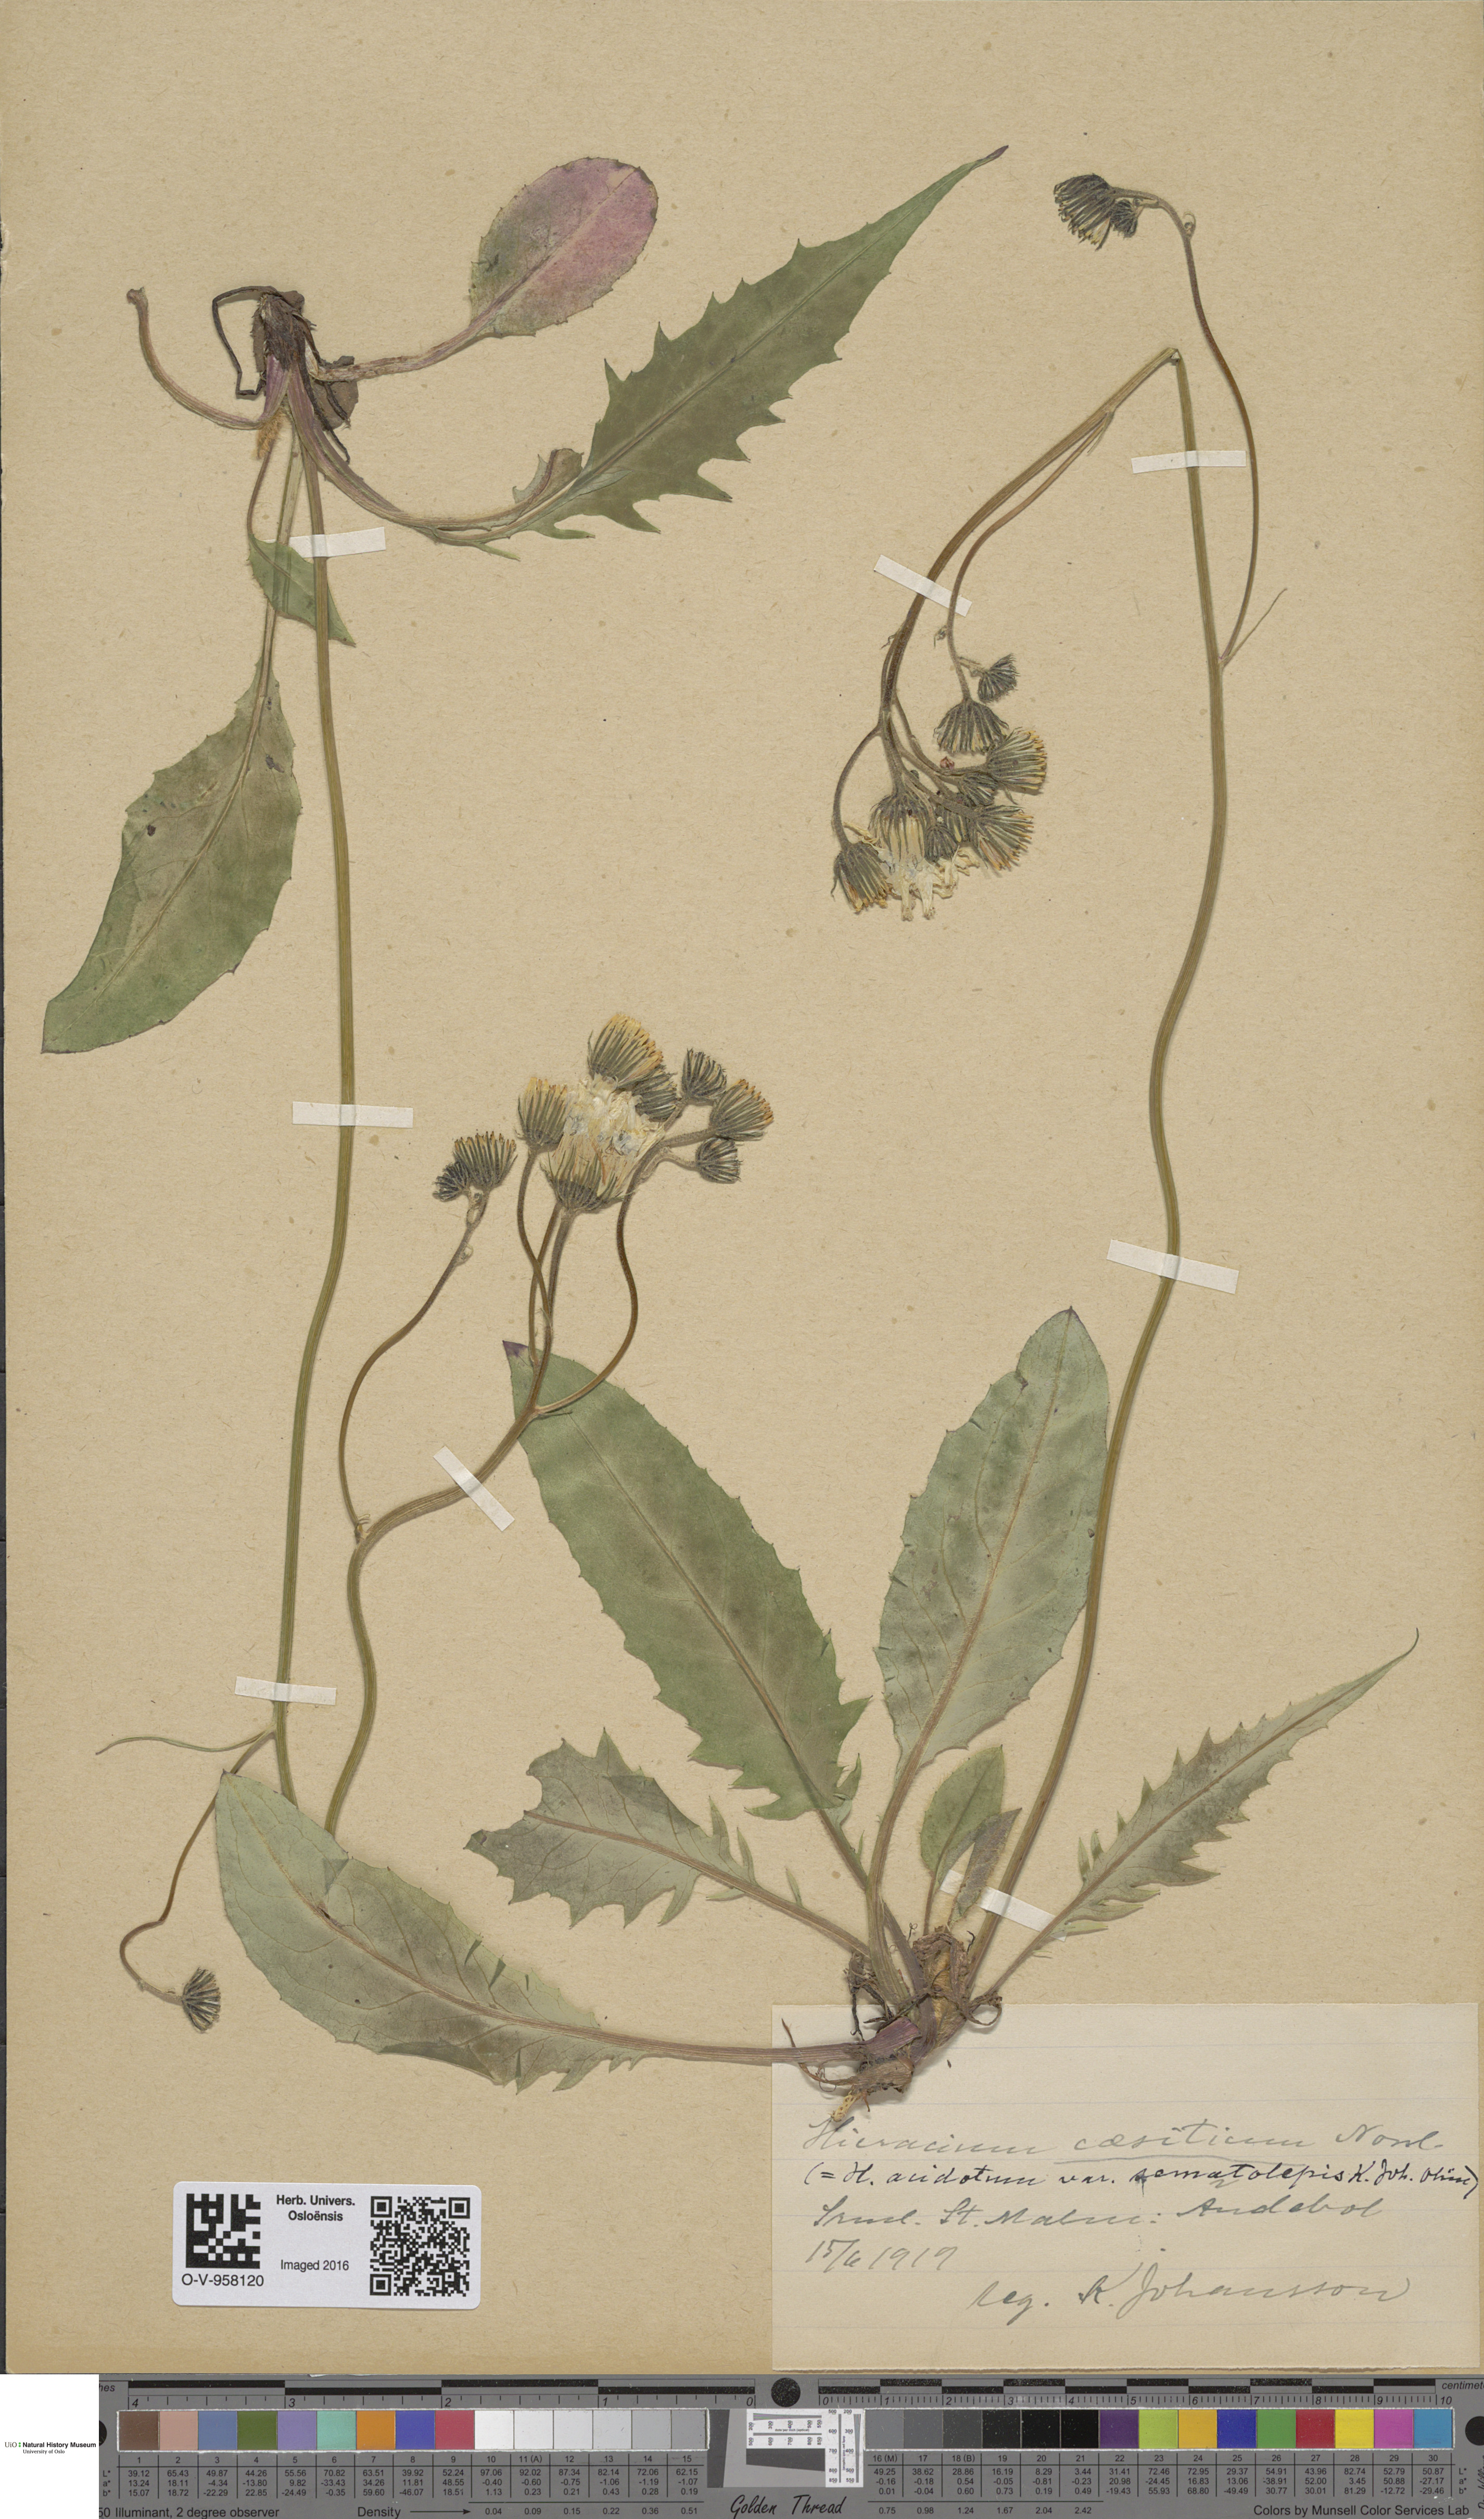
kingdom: Plantae
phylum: Tracheophyta
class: Magnoliopsida
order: Asterales
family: Asteraceae
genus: Hieracium
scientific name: Hieracium christianense
